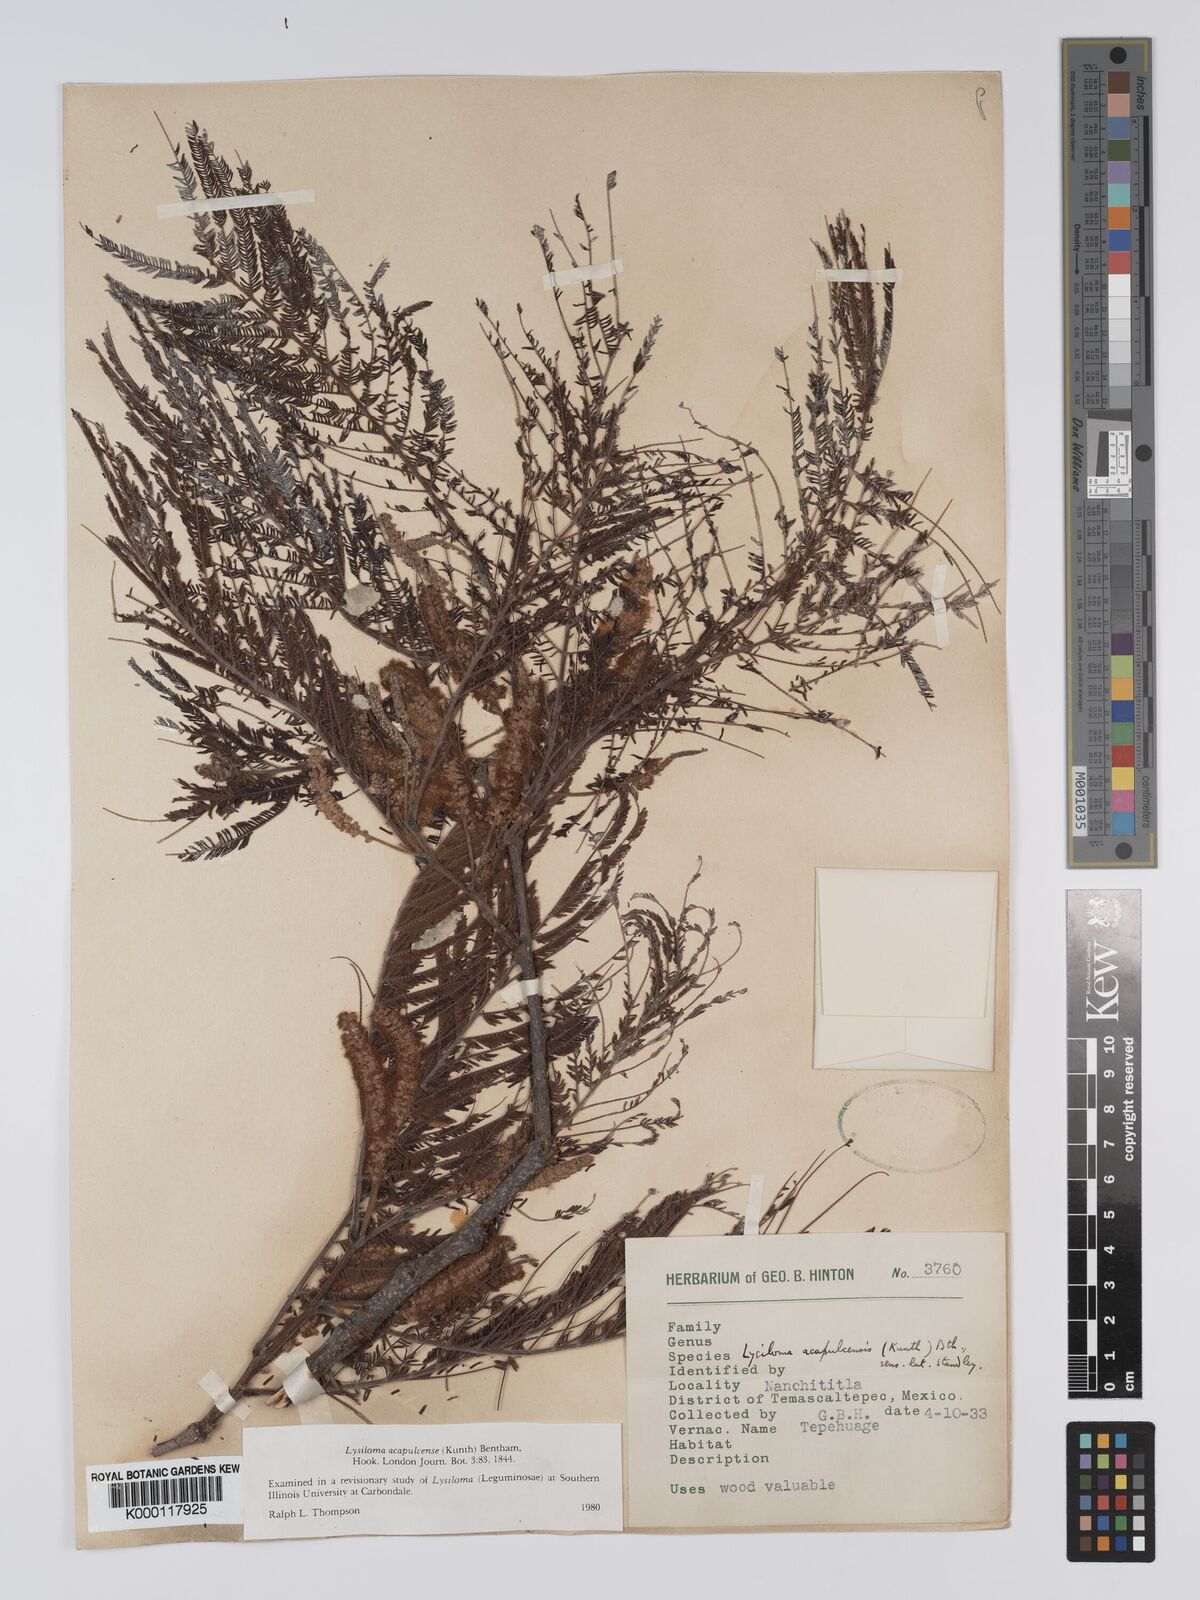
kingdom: Plantae
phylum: Tracheophyta
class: Magnoliopsida
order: Fabales
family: Fabaceae
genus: Lysiloma
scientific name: Lysiloma acapulcense
